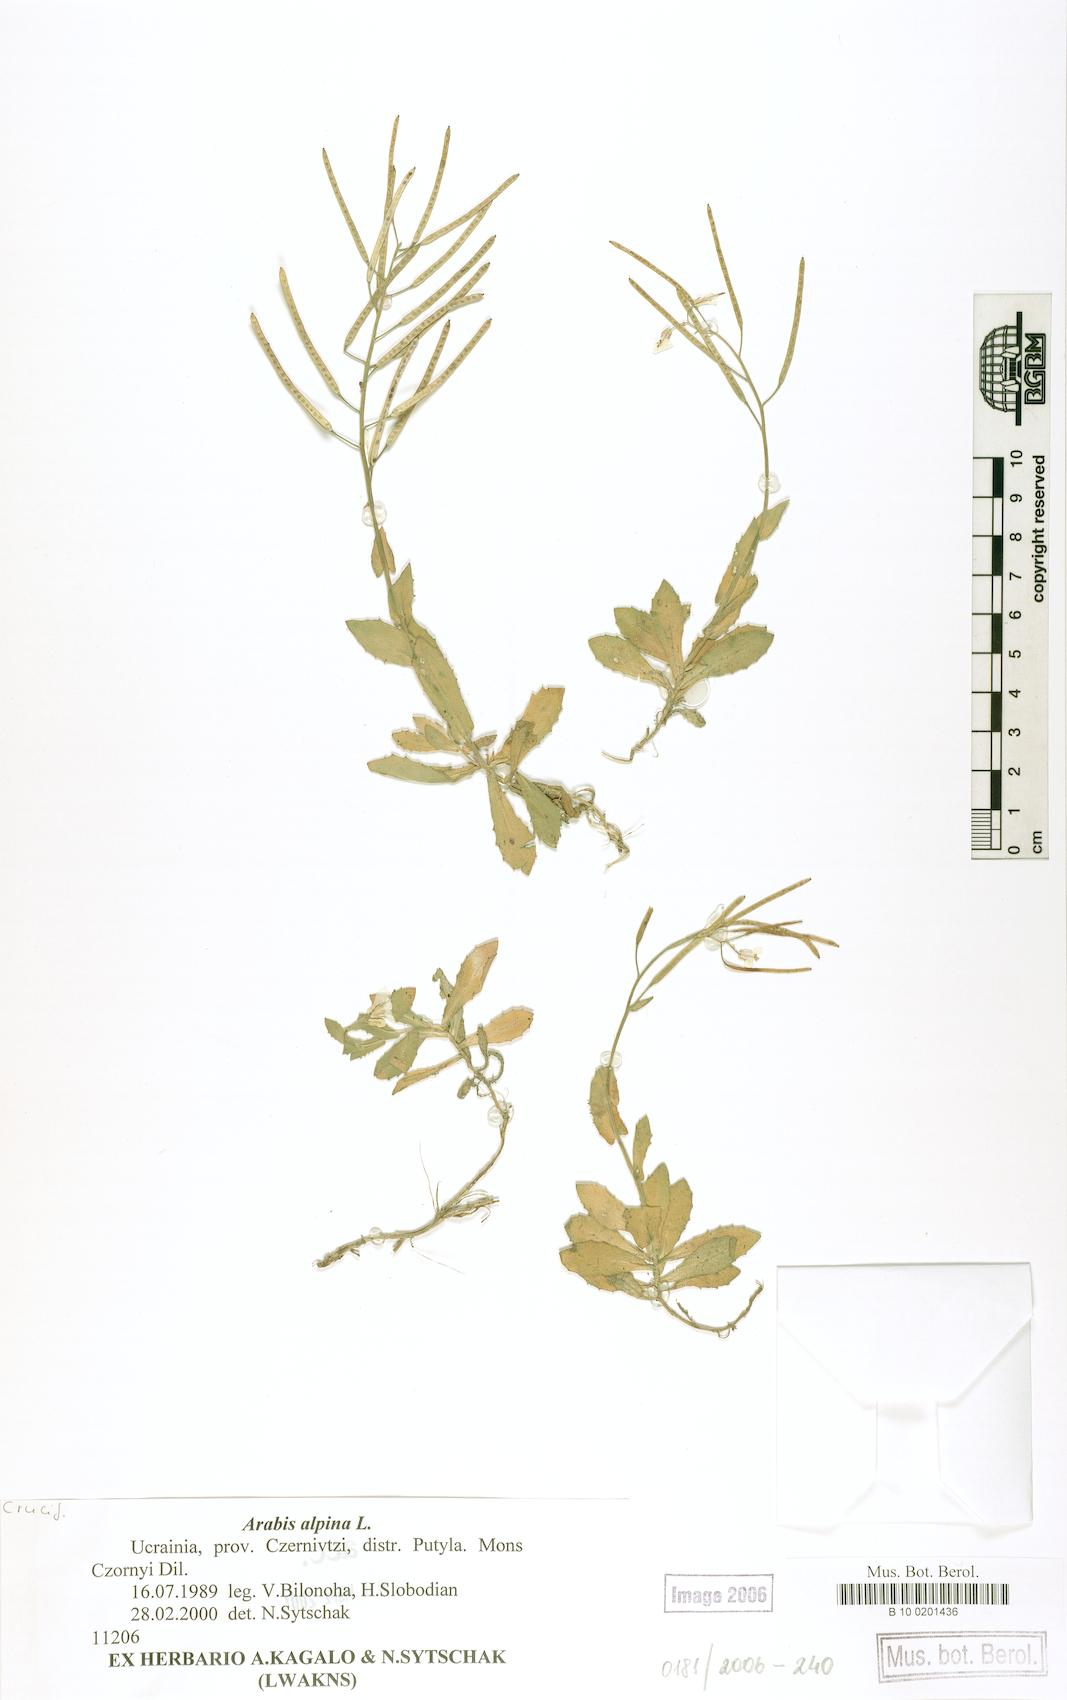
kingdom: Plantae
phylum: Tracheophyta
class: Magnoliopsida
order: Brassicales
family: Brassicaceae
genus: Arabis
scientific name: Arabis alpina
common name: Alpine rock-cress
